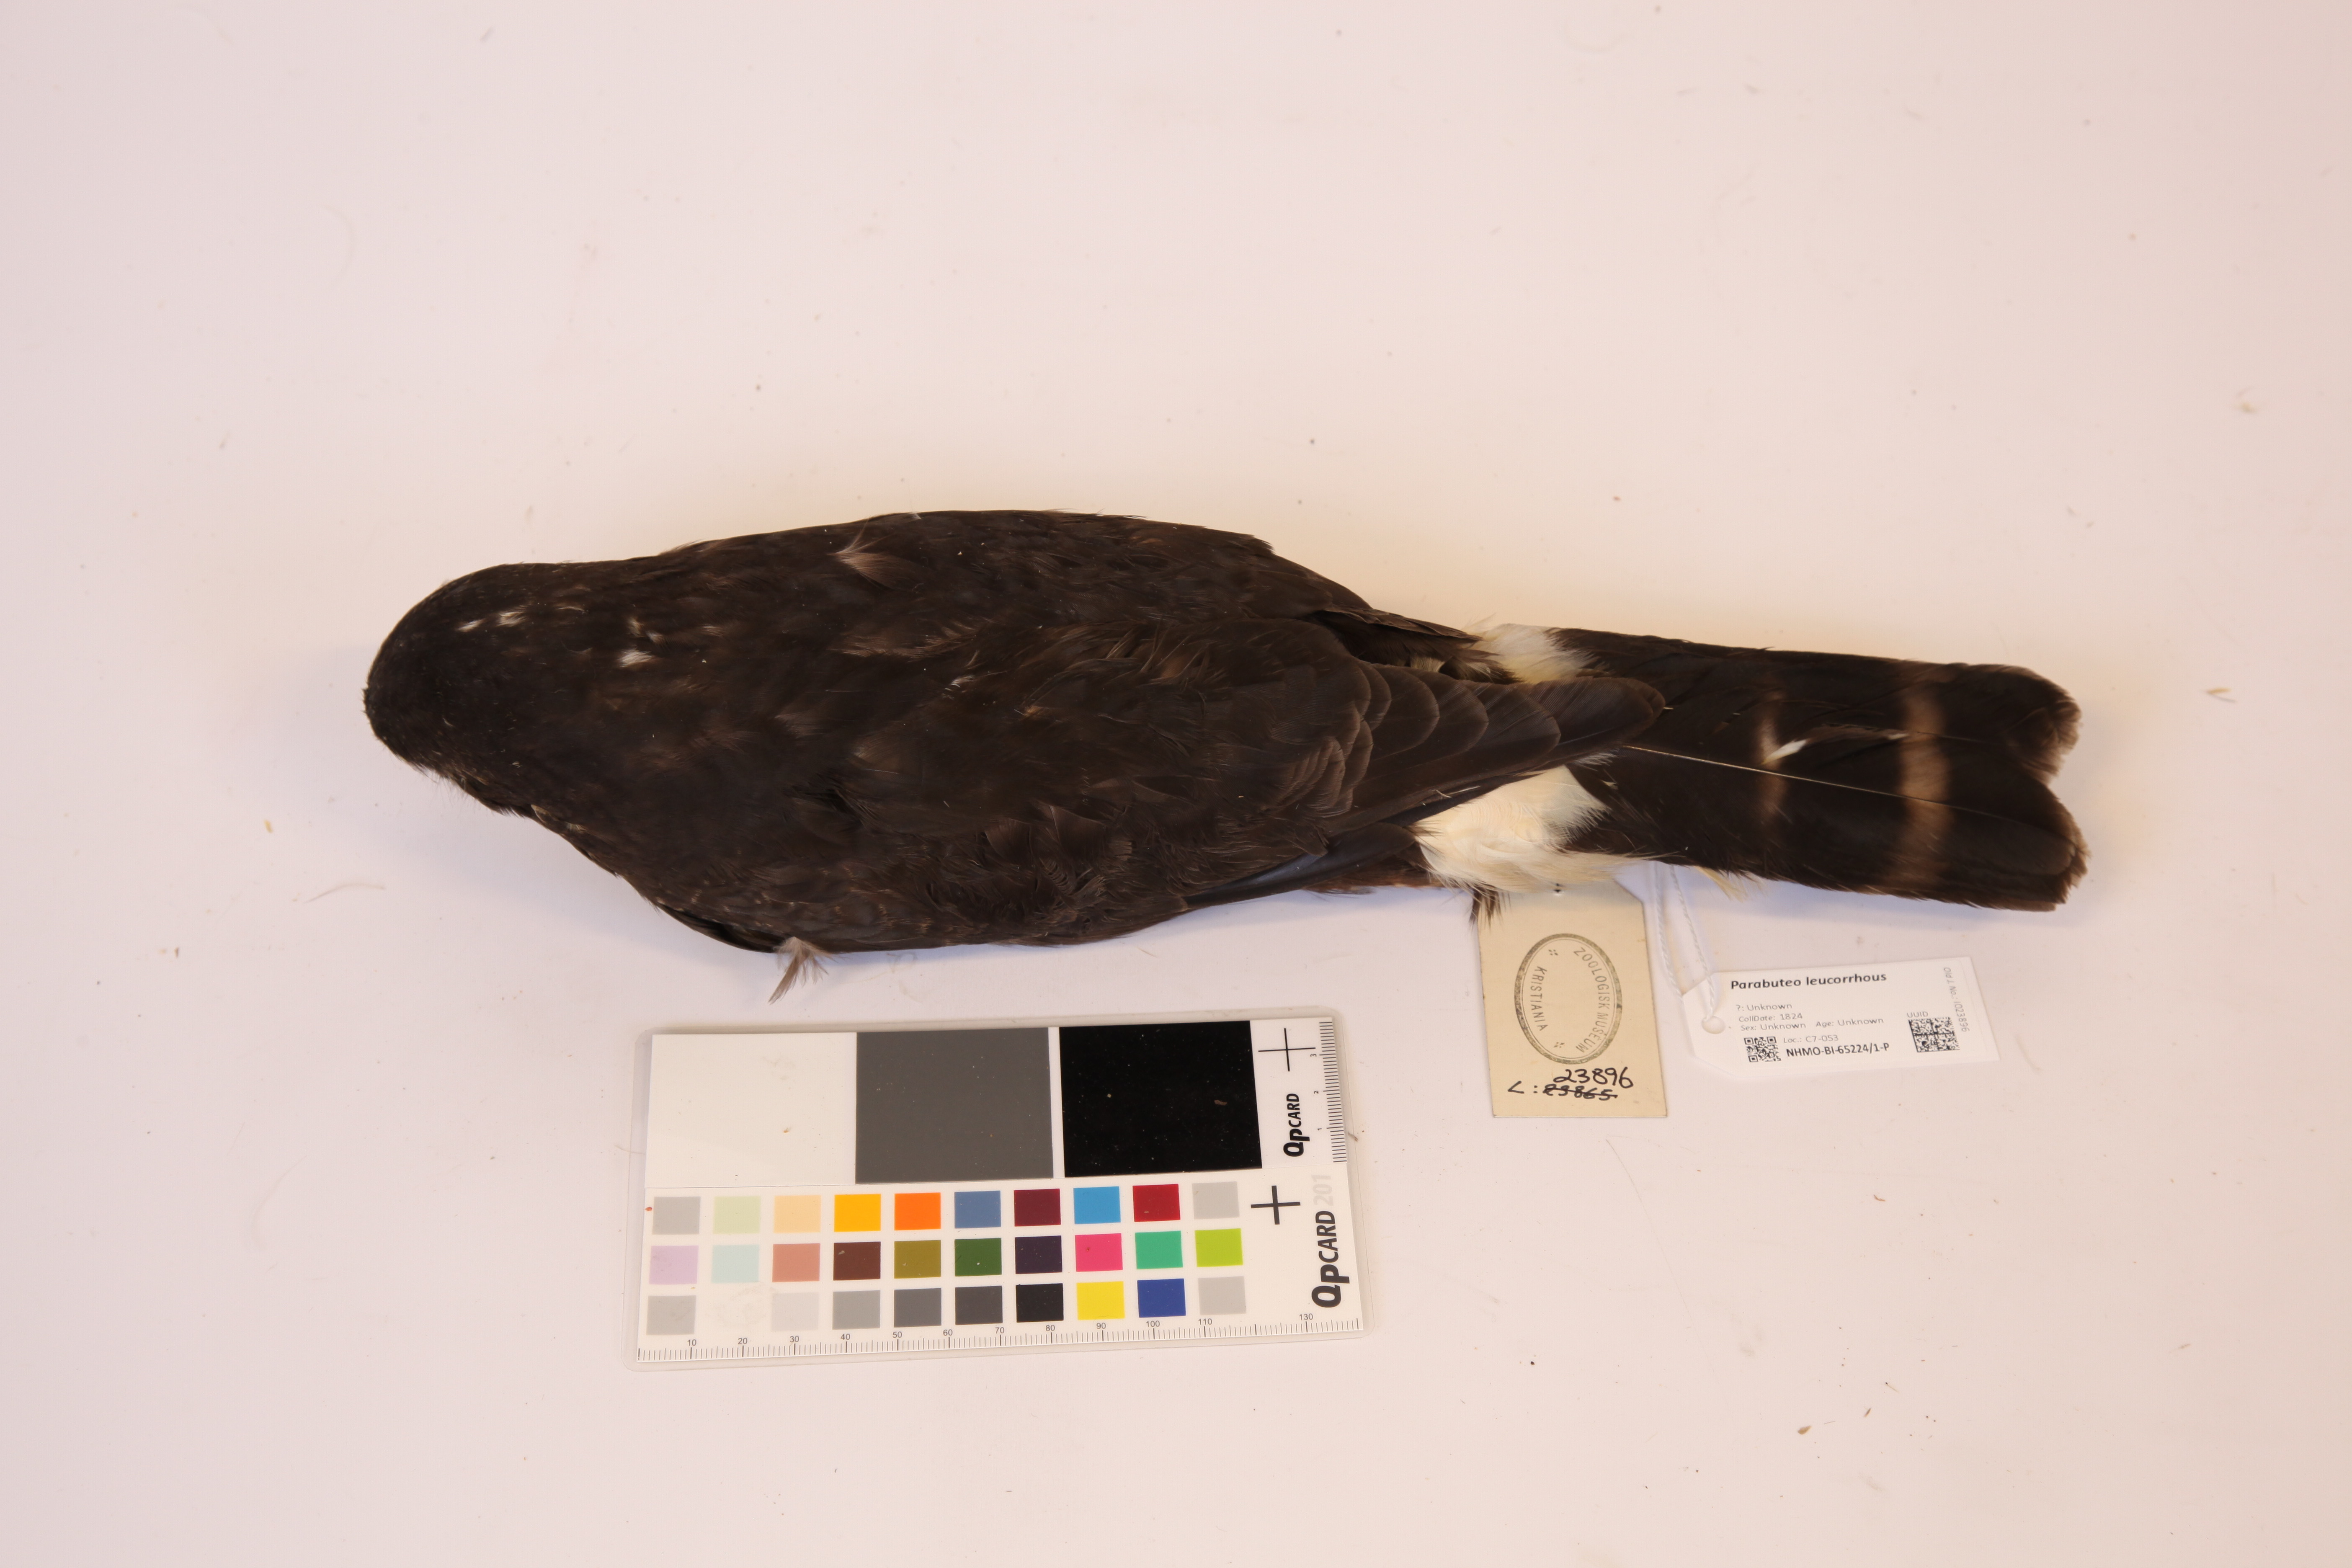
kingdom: Animalia
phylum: Chordata
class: Aves
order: Accipitriformes
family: Accipitridae
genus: Percnohierax
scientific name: Percnohierax leucorrhous
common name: White-rumped hawk
